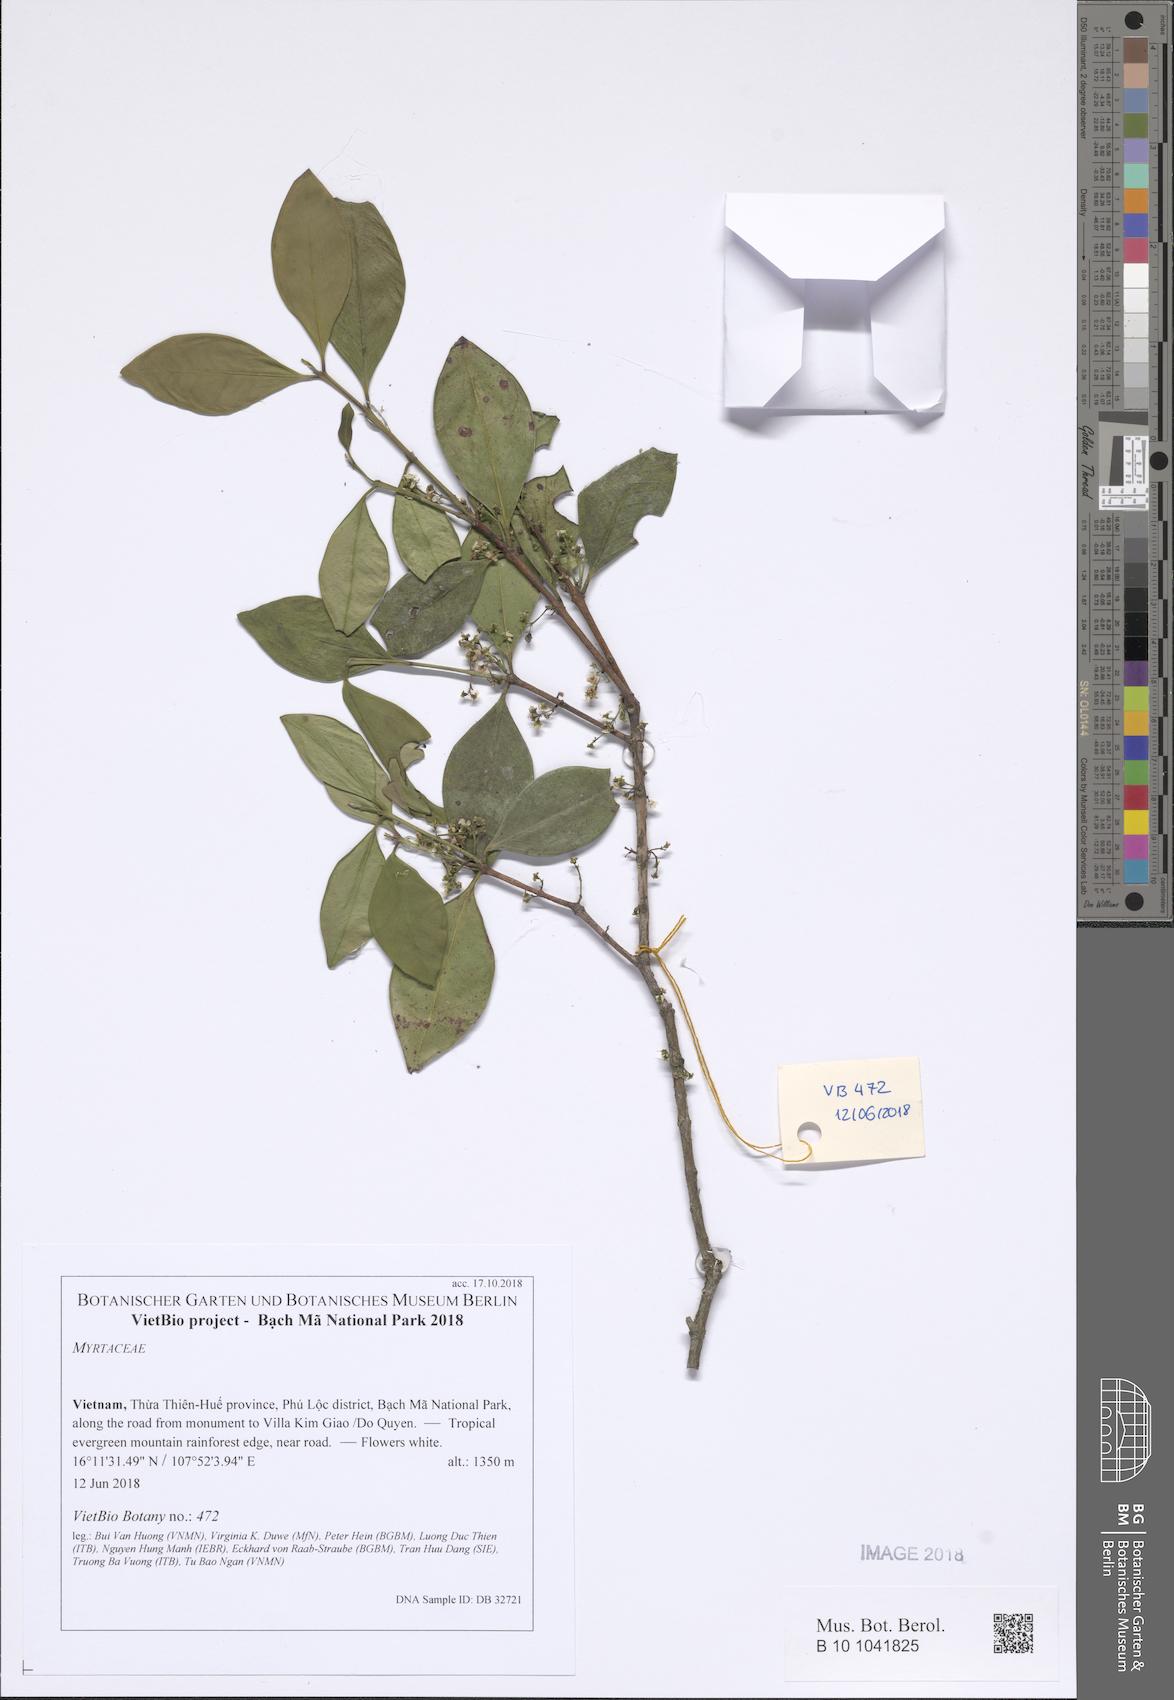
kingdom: Plantae
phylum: Tracheophyta
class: Magnoliopsida
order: Myrtales
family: Myrtaceae
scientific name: Myrtaceae
